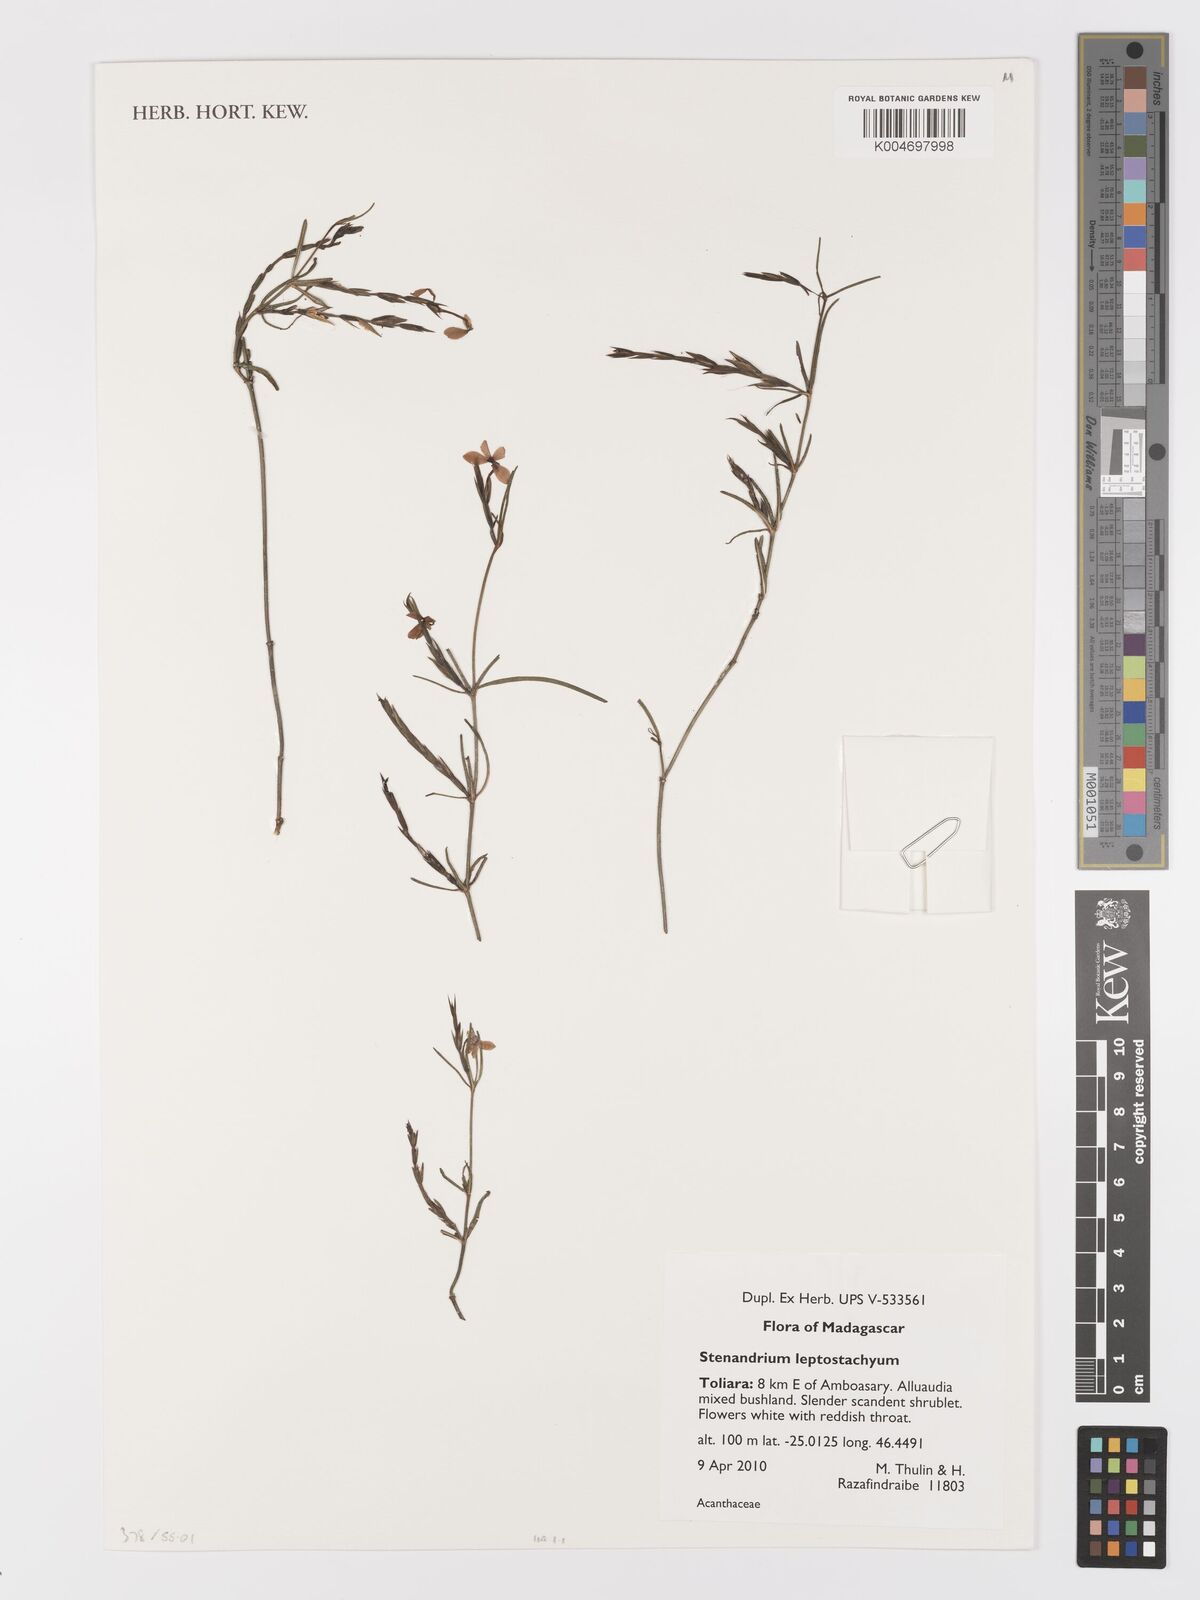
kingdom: Plantae
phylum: Tracheophyta
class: Magnoliopsida
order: Lamiales
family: Acanthaceae
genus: Stenandriopsis
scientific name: Stenandriopsis leptostachys
